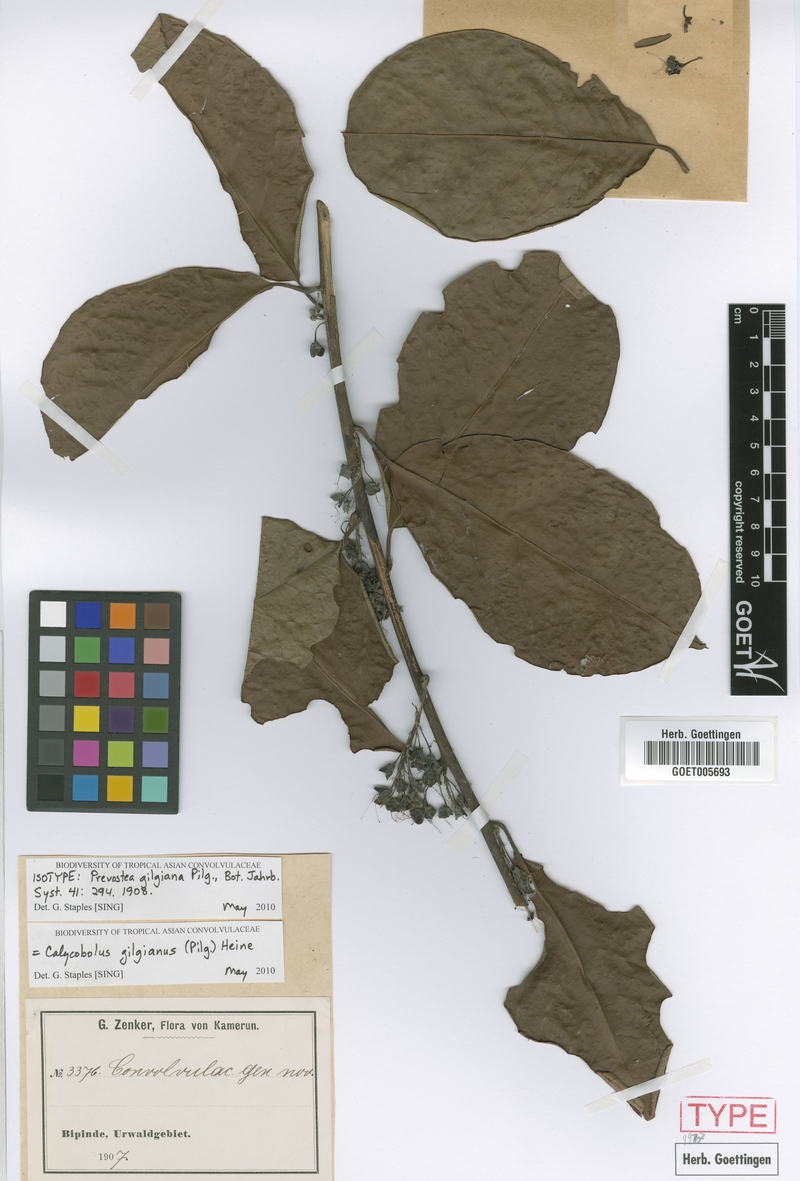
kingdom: Plantae
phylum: Tracheophyta
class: Magnoliopsida
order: Solanales
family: Convolvulaceae
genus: Calycobolus
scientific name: Calycobolus gilgianus
